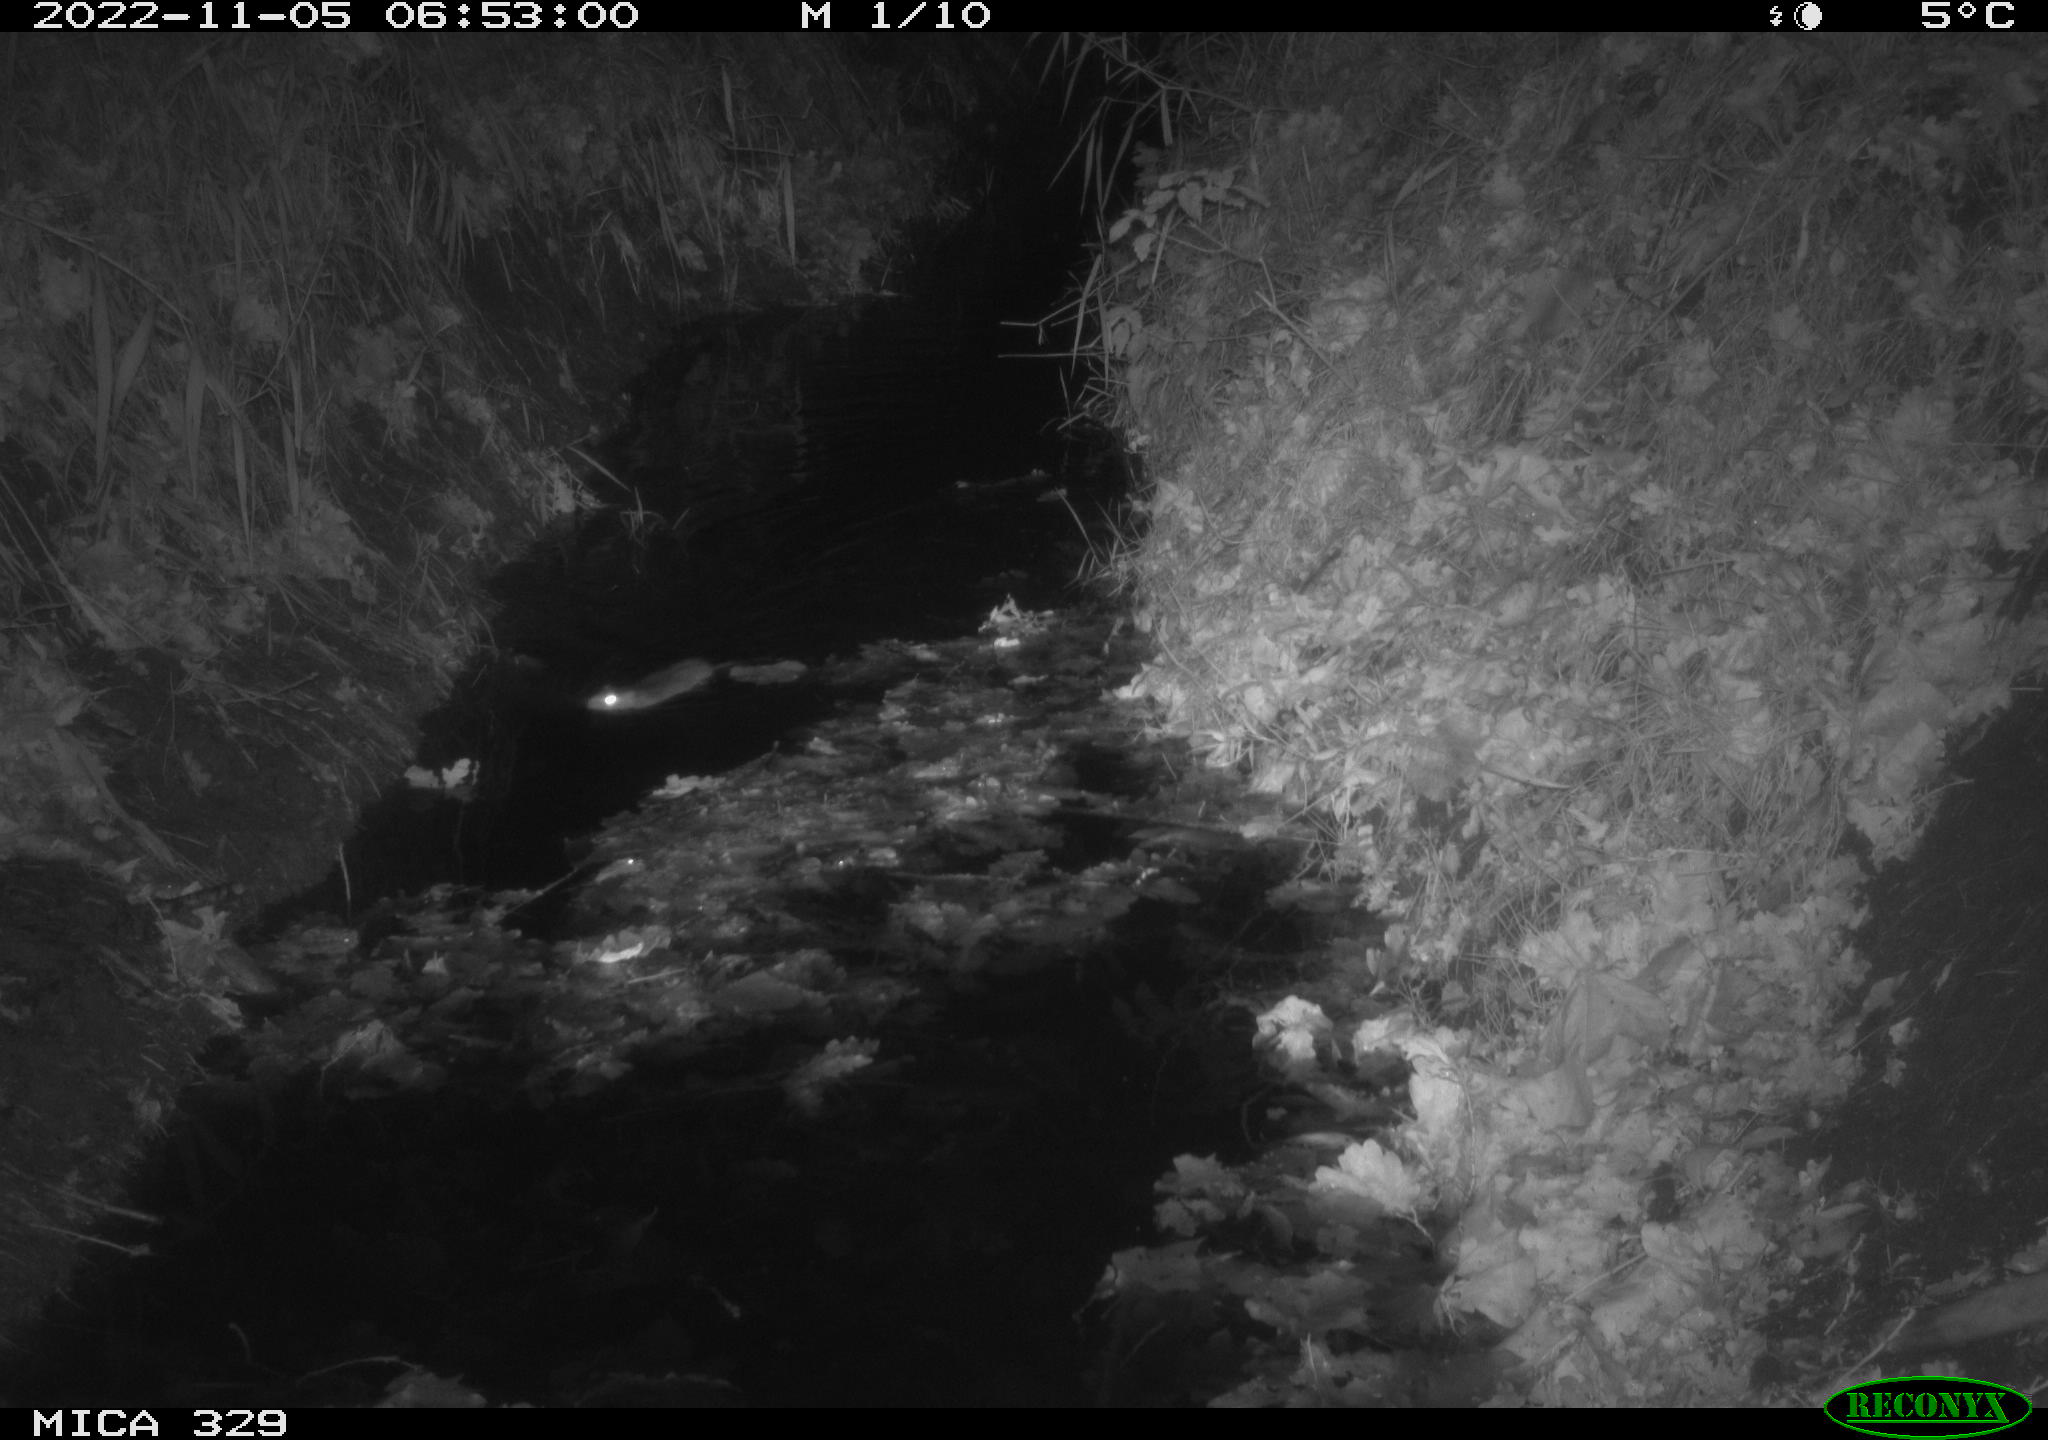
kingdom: Animalia
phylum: Chordata
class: Mammalia
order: Rodentia
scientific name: Rodentia
